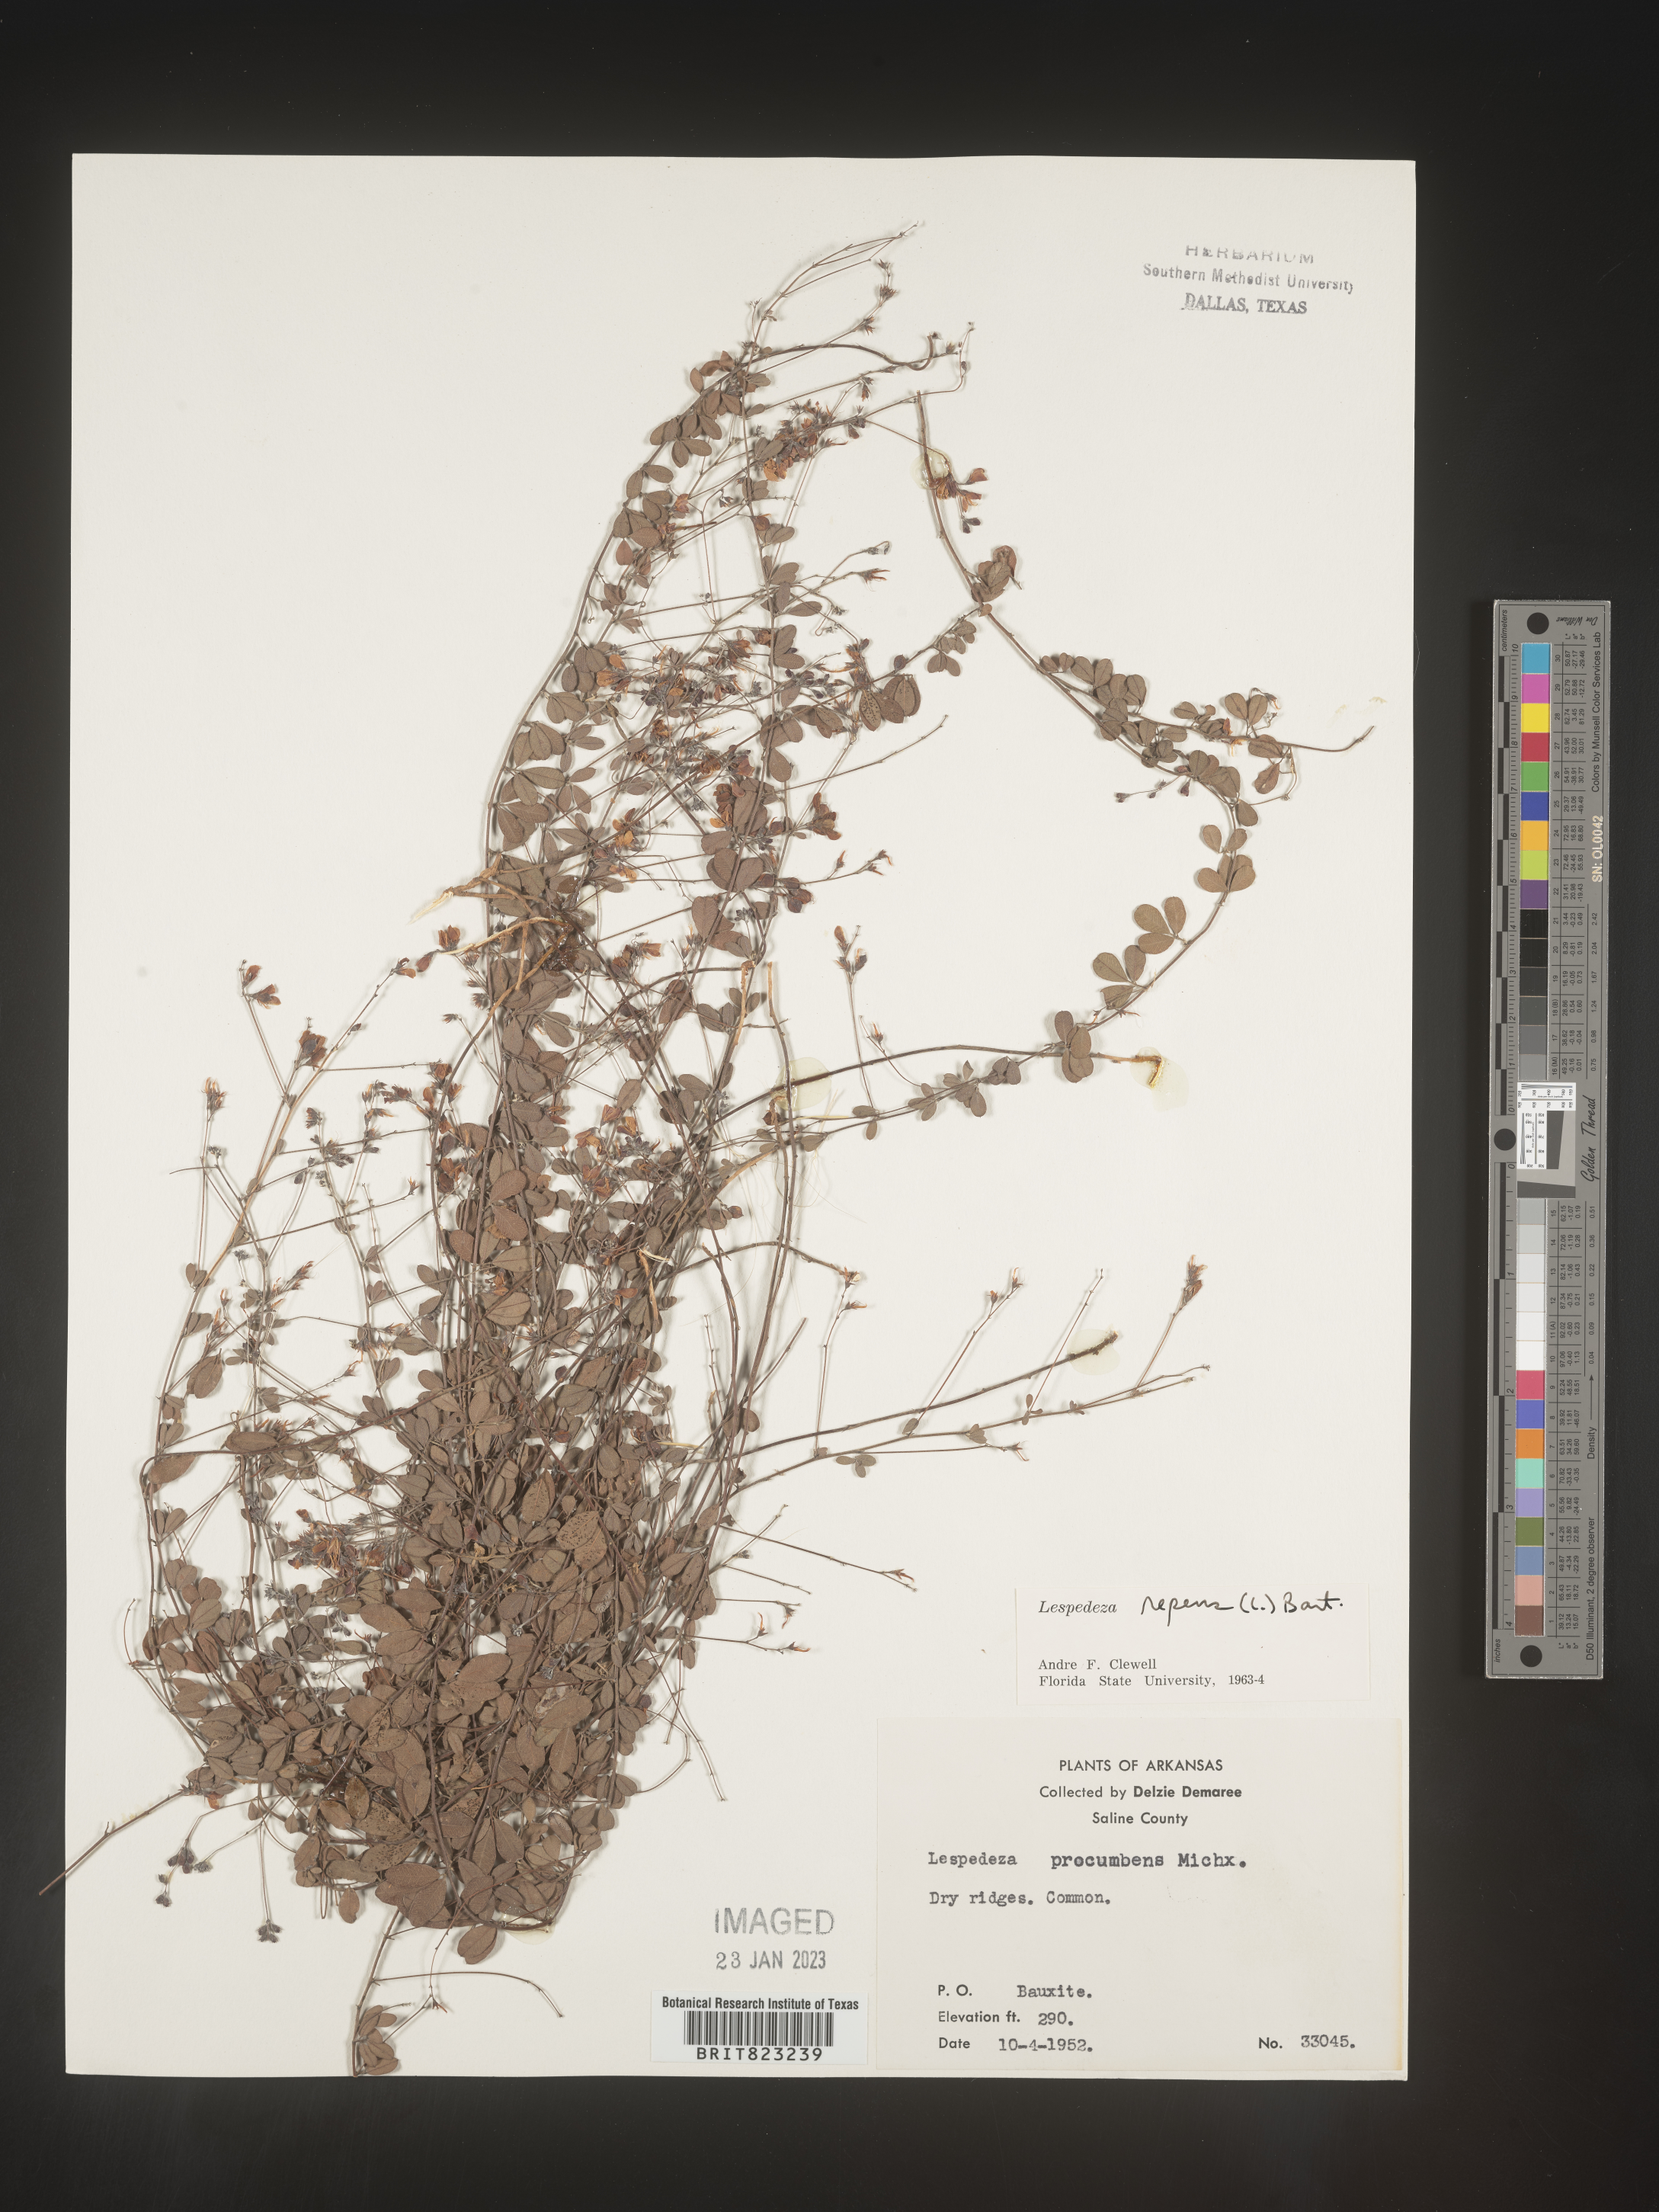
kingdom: Plantae
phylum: Tracheophyta
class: Magnoliopsida
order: Fabales
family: Fabaceae
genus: Lespedeza
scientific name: Lespedeza repens
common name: Creeping bush-clover
